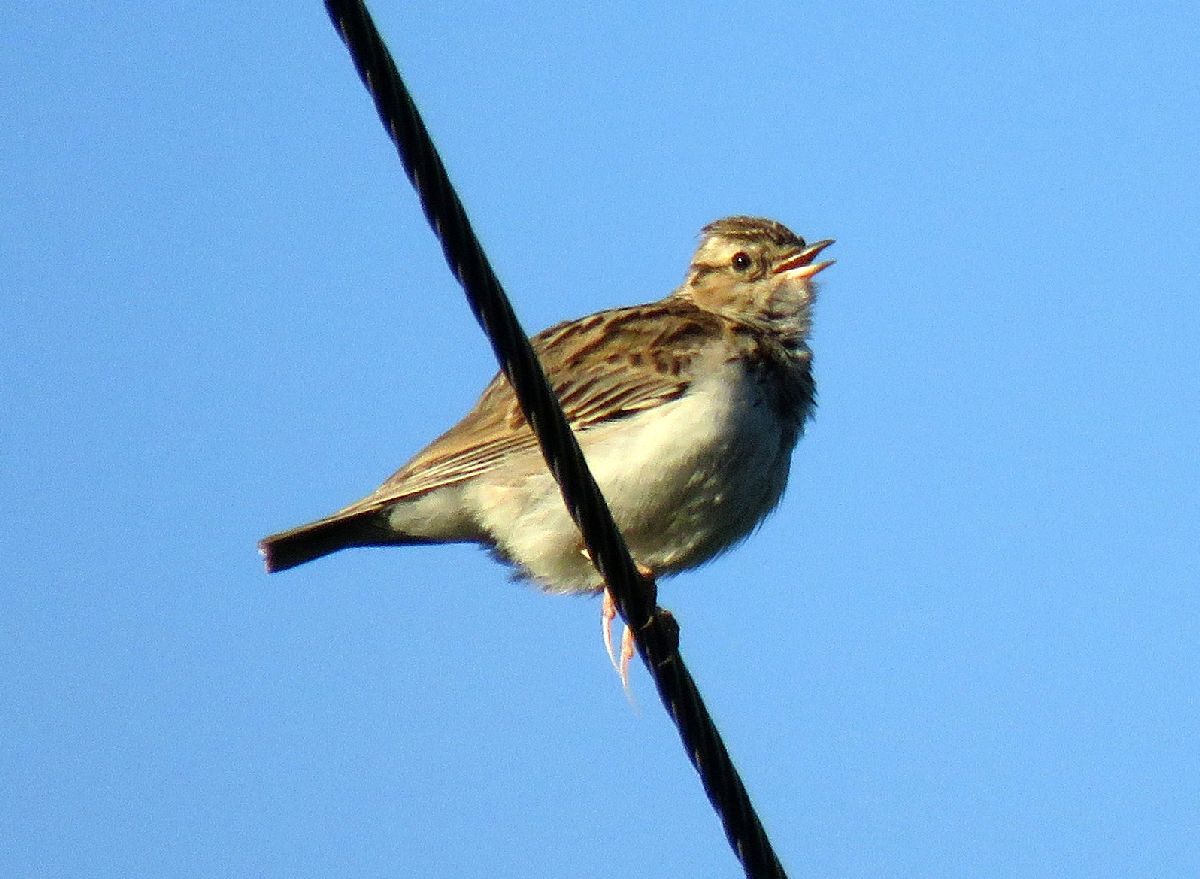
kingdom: Animalia
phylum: Chordata
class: Aves
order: Passeriformes
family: Alaudidae
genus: Lullula
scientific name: Lullula arborea
